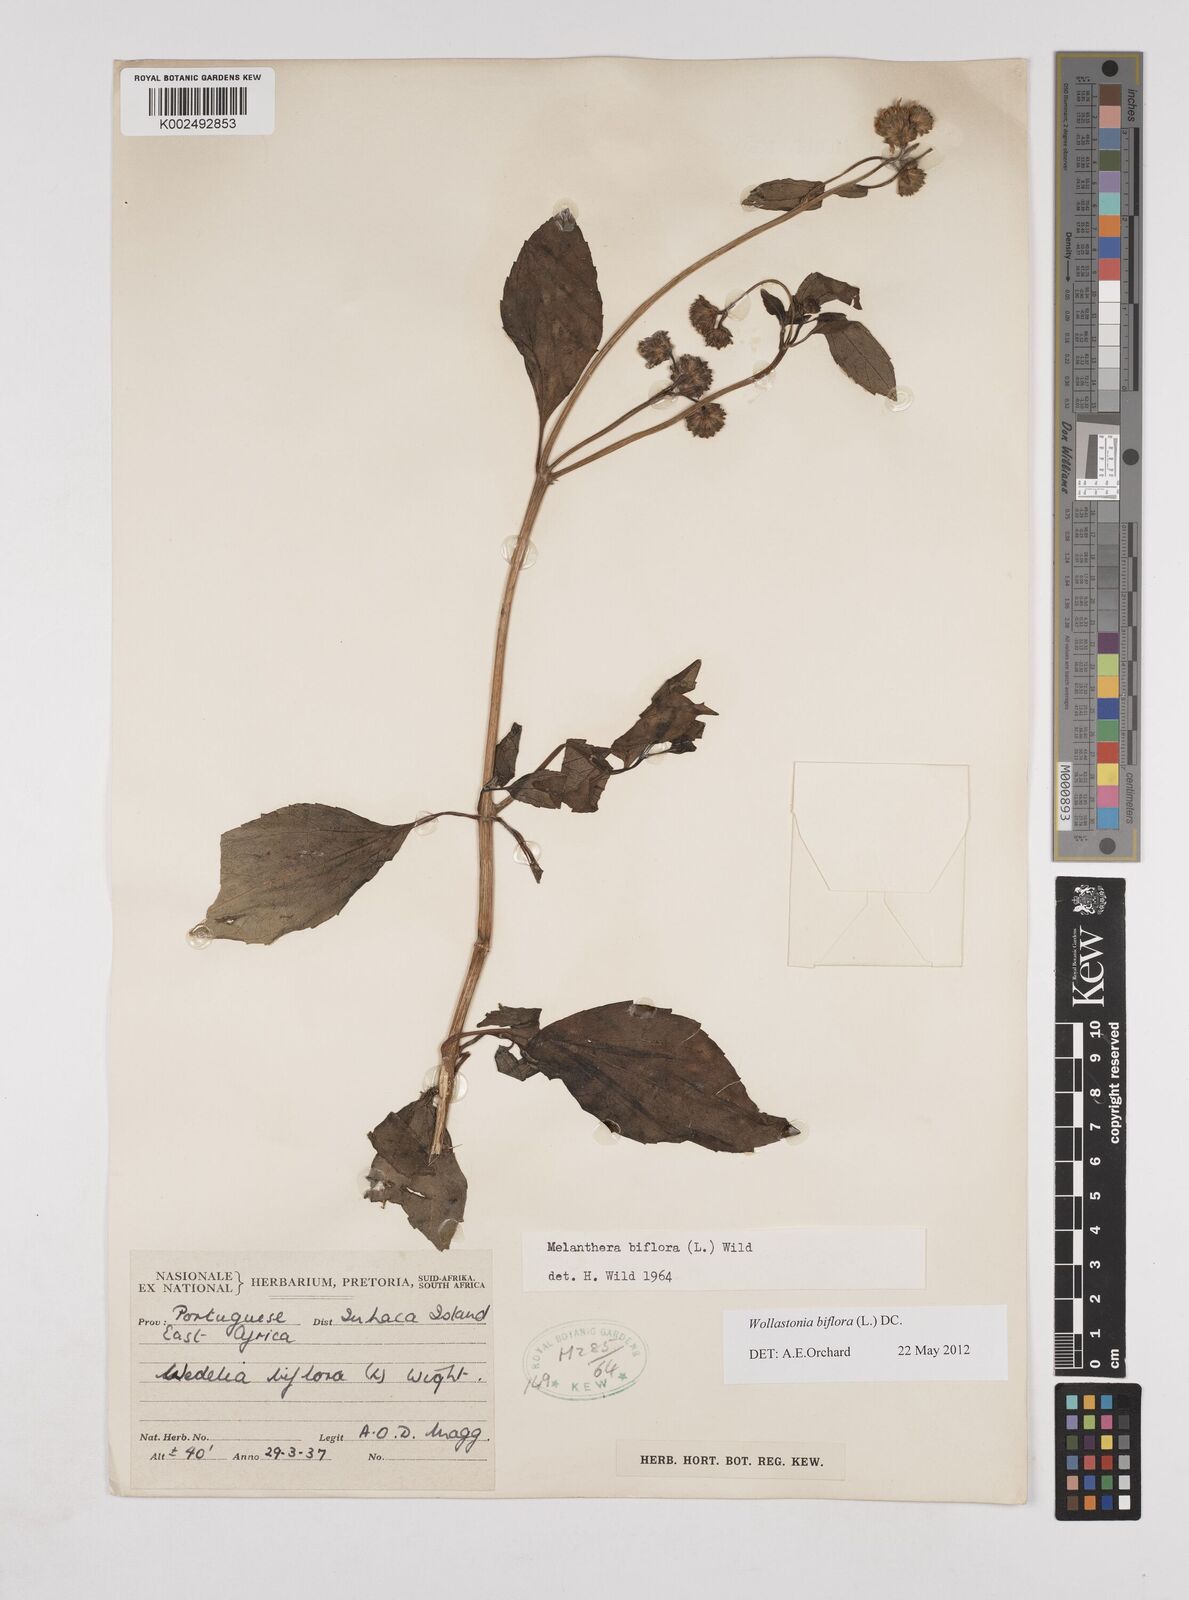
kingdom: Plantae
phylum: Tracheophyta
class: Magnoliopsida
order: Asterales
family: Asteraceae
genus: Wollastonia
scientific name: Wollastonia biflora
